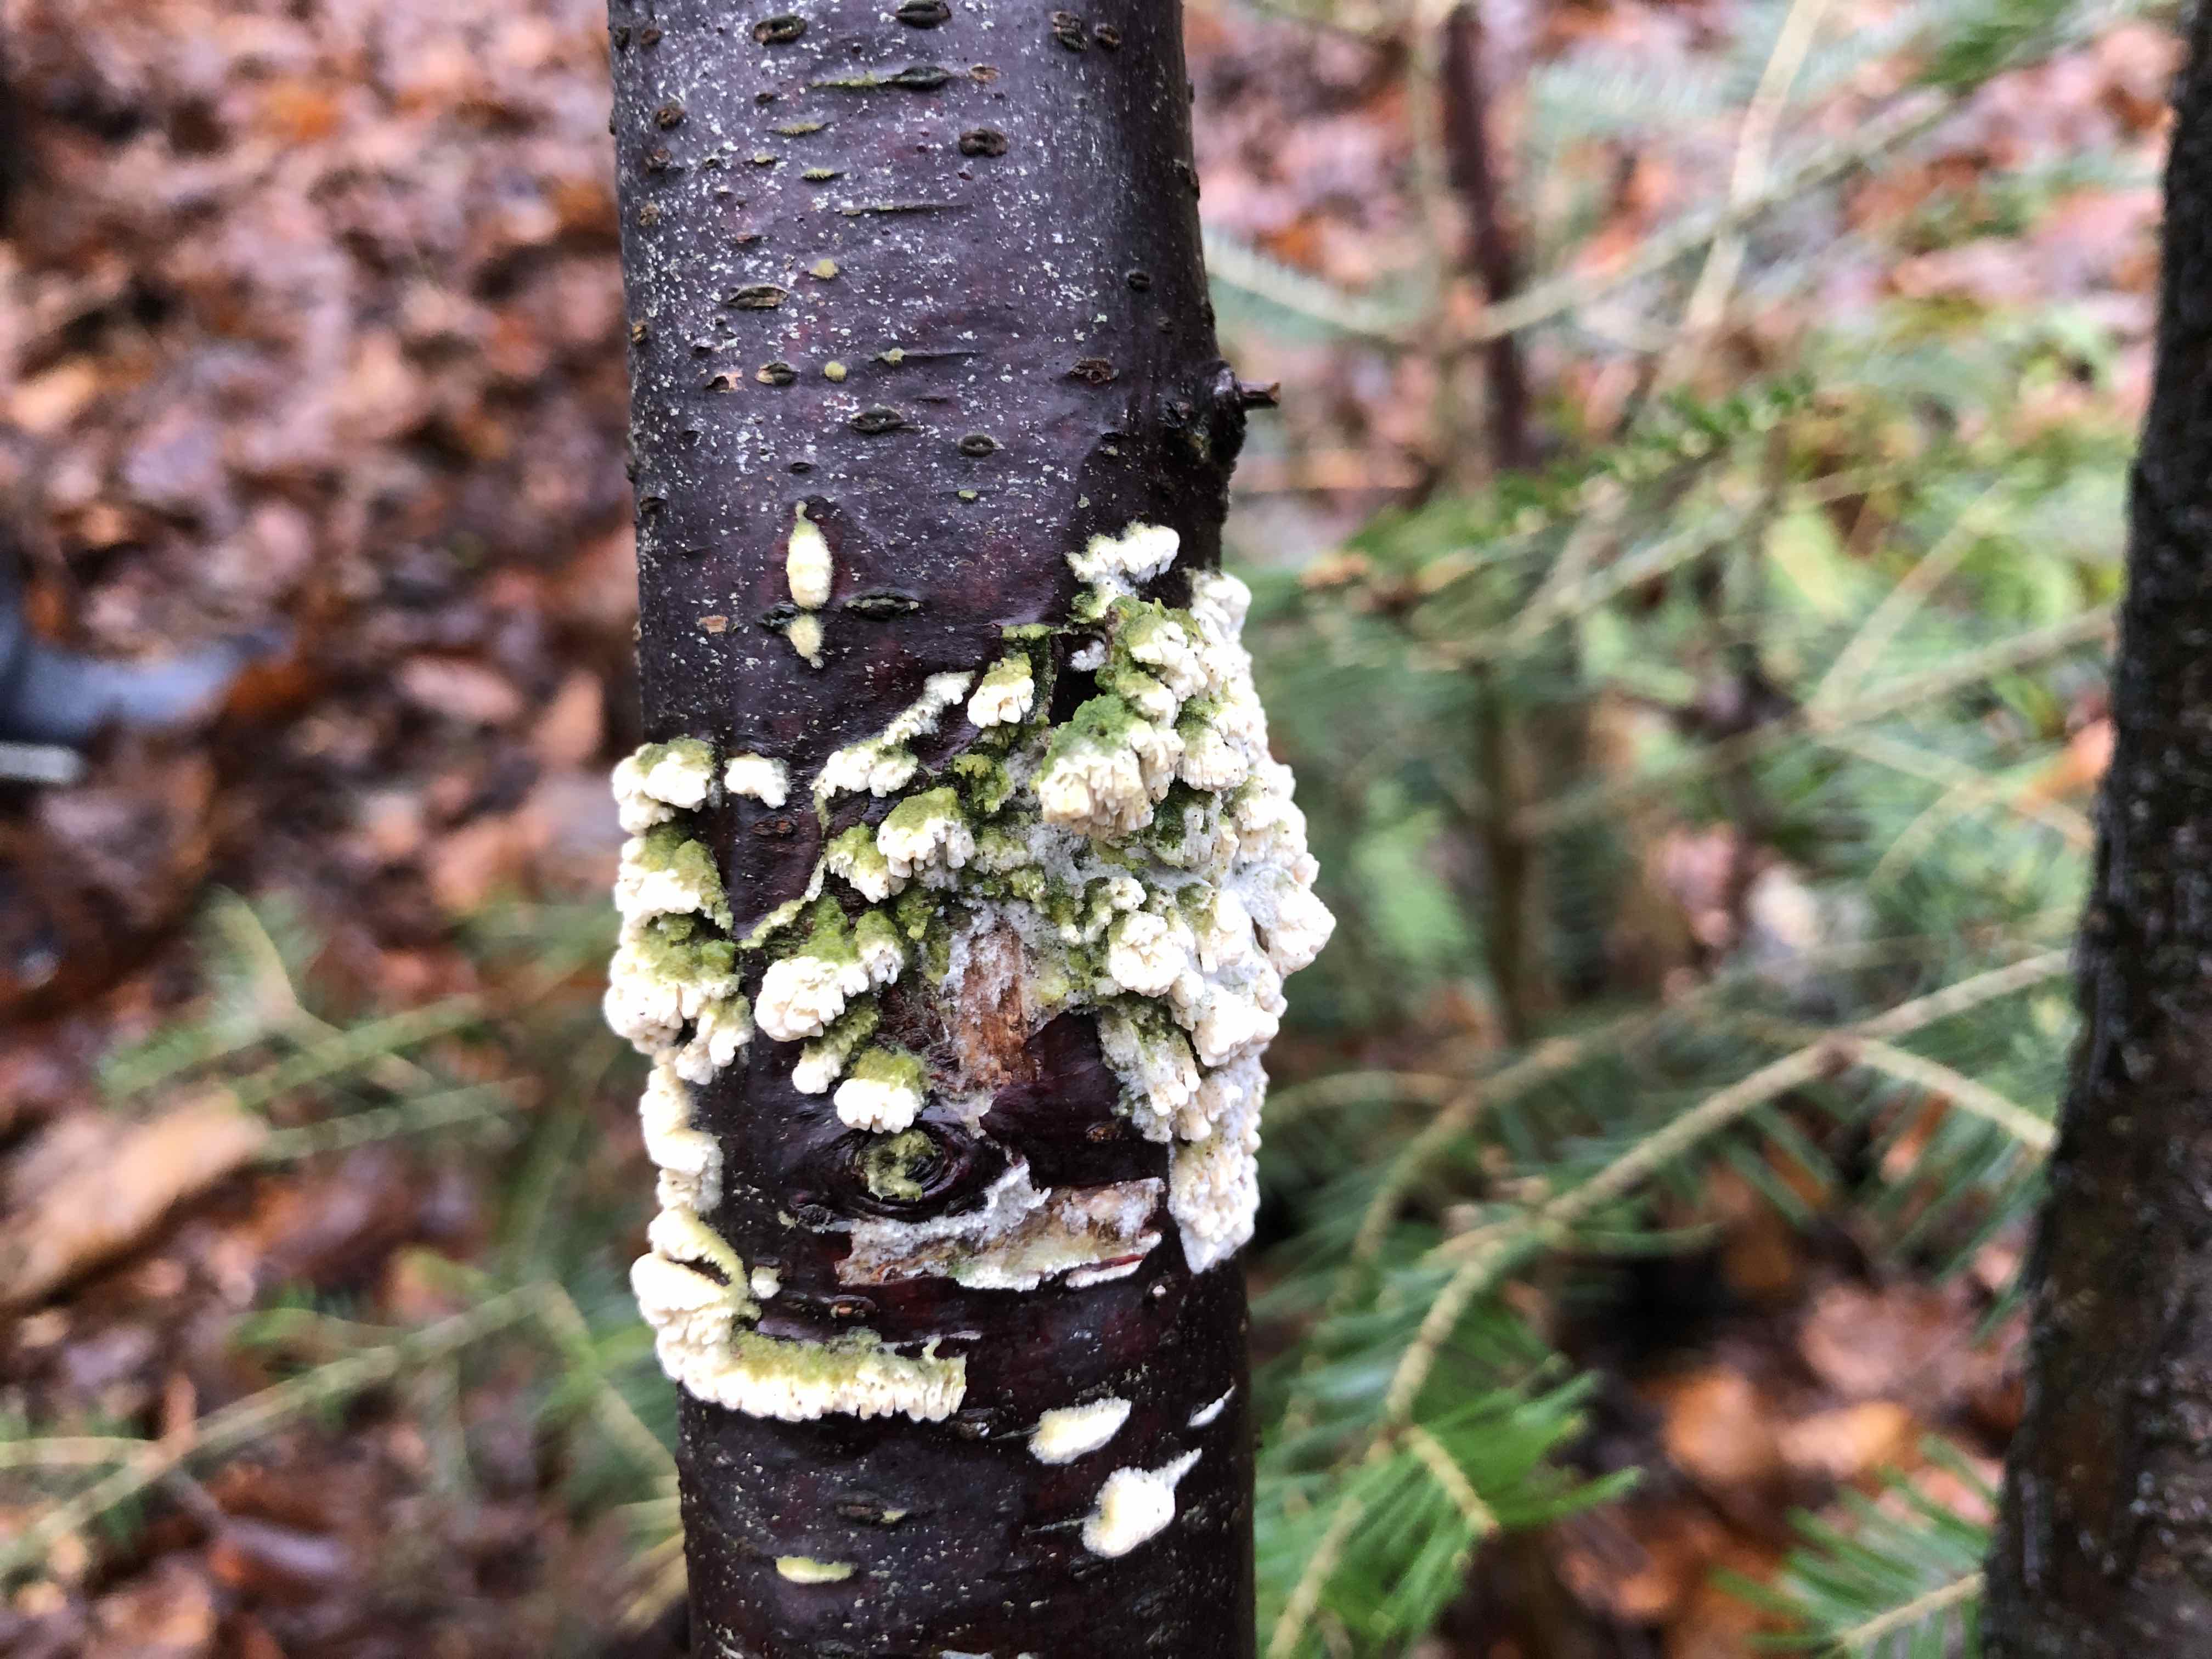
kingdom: Fungi
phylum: Basidiomycota
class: Agaricomycetes
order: Hymenochaetales
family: Schizoporaceae
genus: Xylodon
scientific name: Xylodon radula
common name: grovtandet kalkskind
